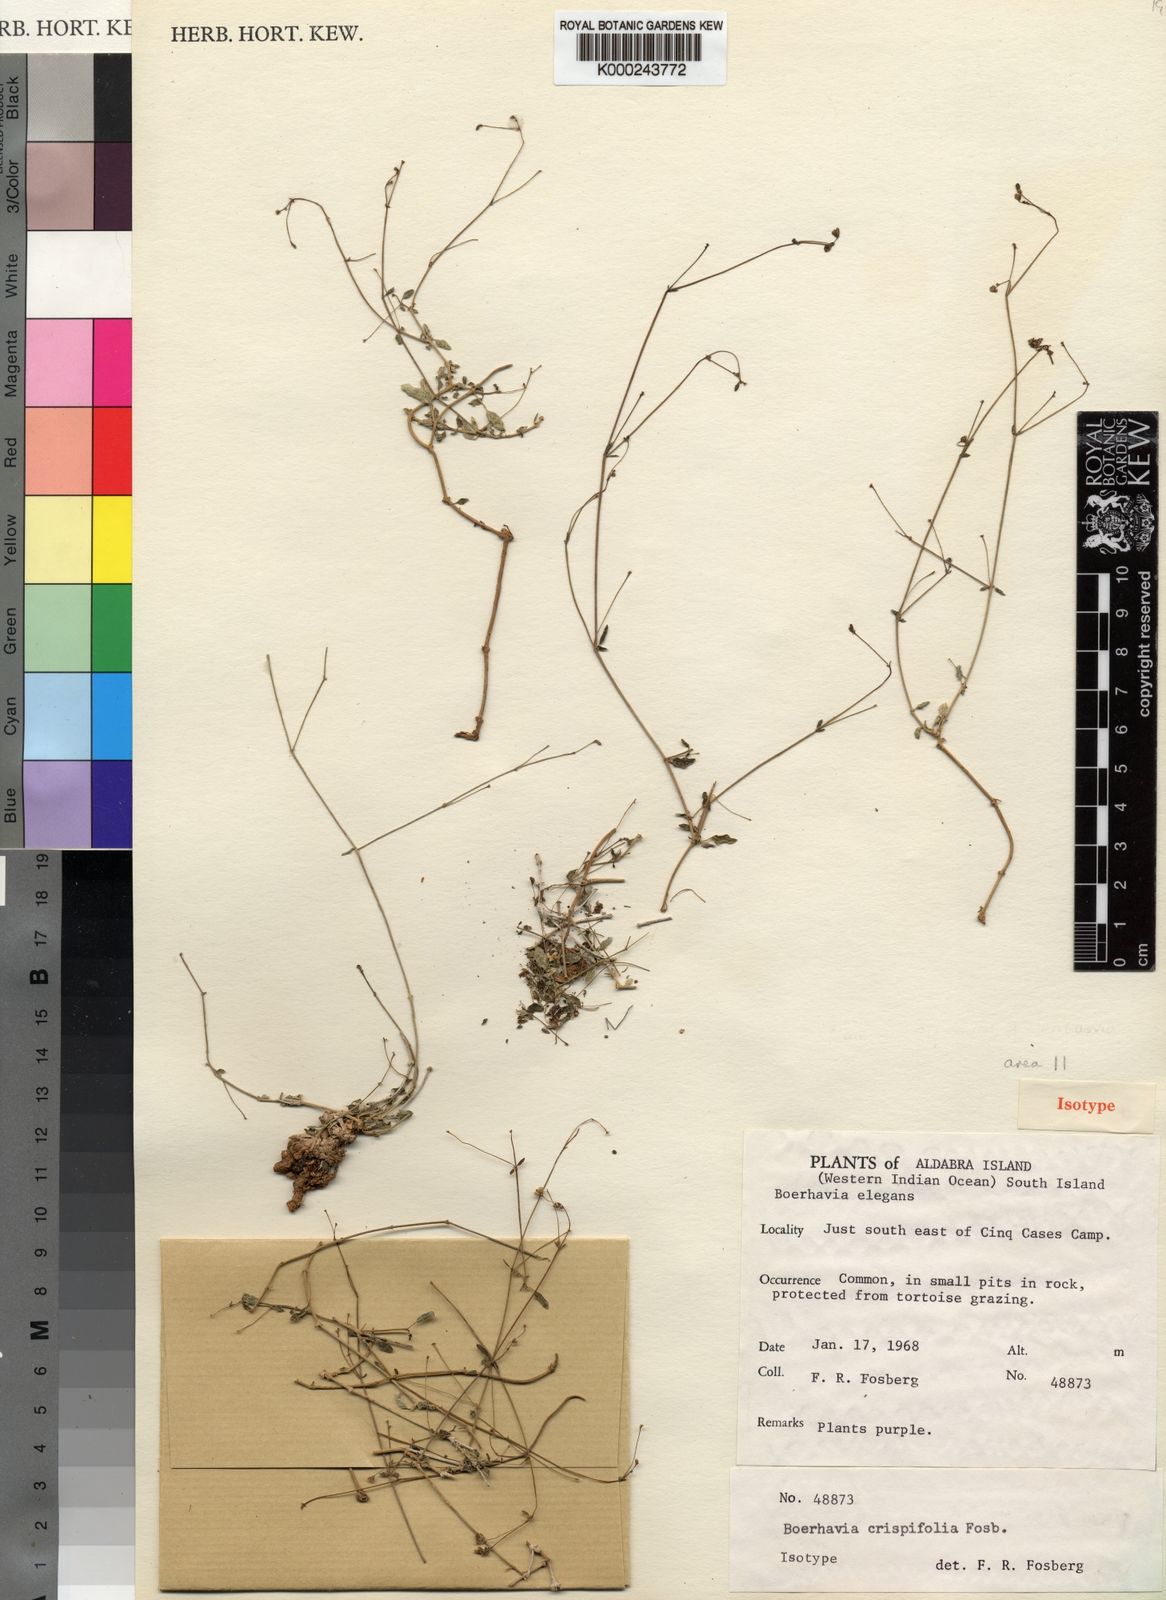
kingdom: Plantae
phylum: Tracheophyta
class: Magnoliopsida
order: Caryophyllales
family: Nyctaginaceae
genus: Boerhavia
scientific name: Boerhavia elegans
